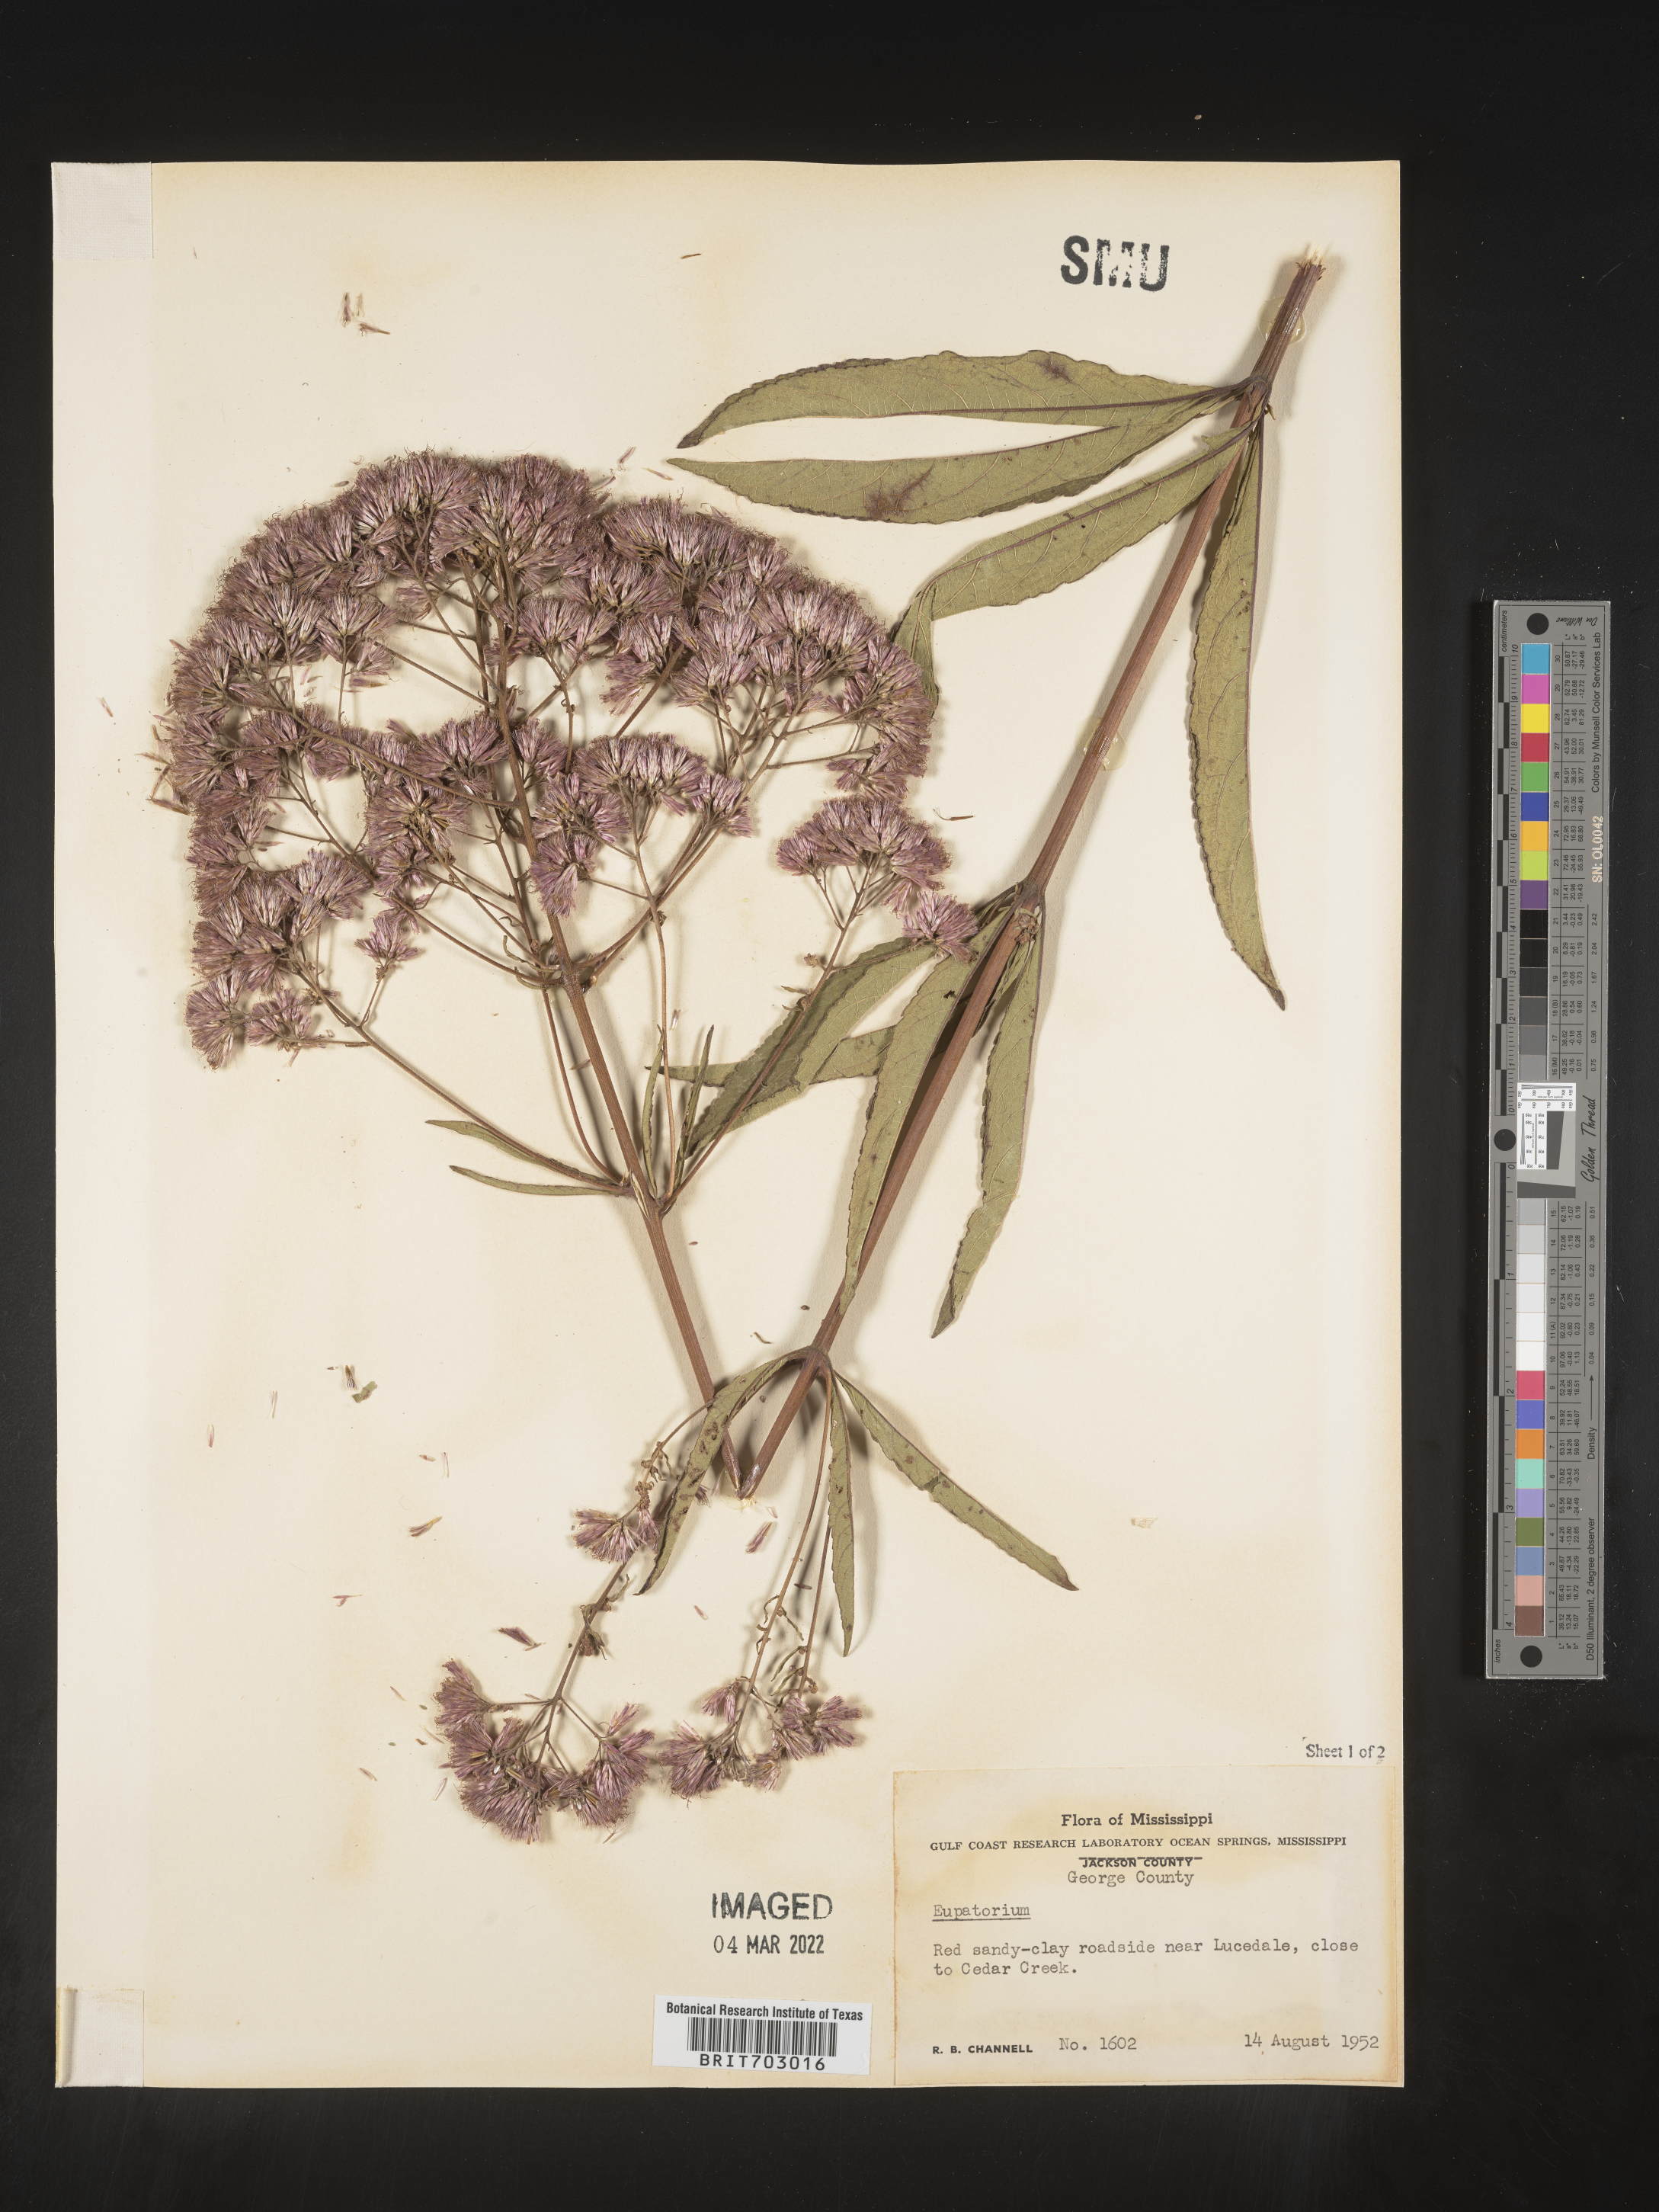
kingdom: Plantae
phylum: Tracheophyta
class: Magnoliopsida
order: Asterales
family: Asteraceae
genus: Eupatorium
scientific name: Eupatorium
